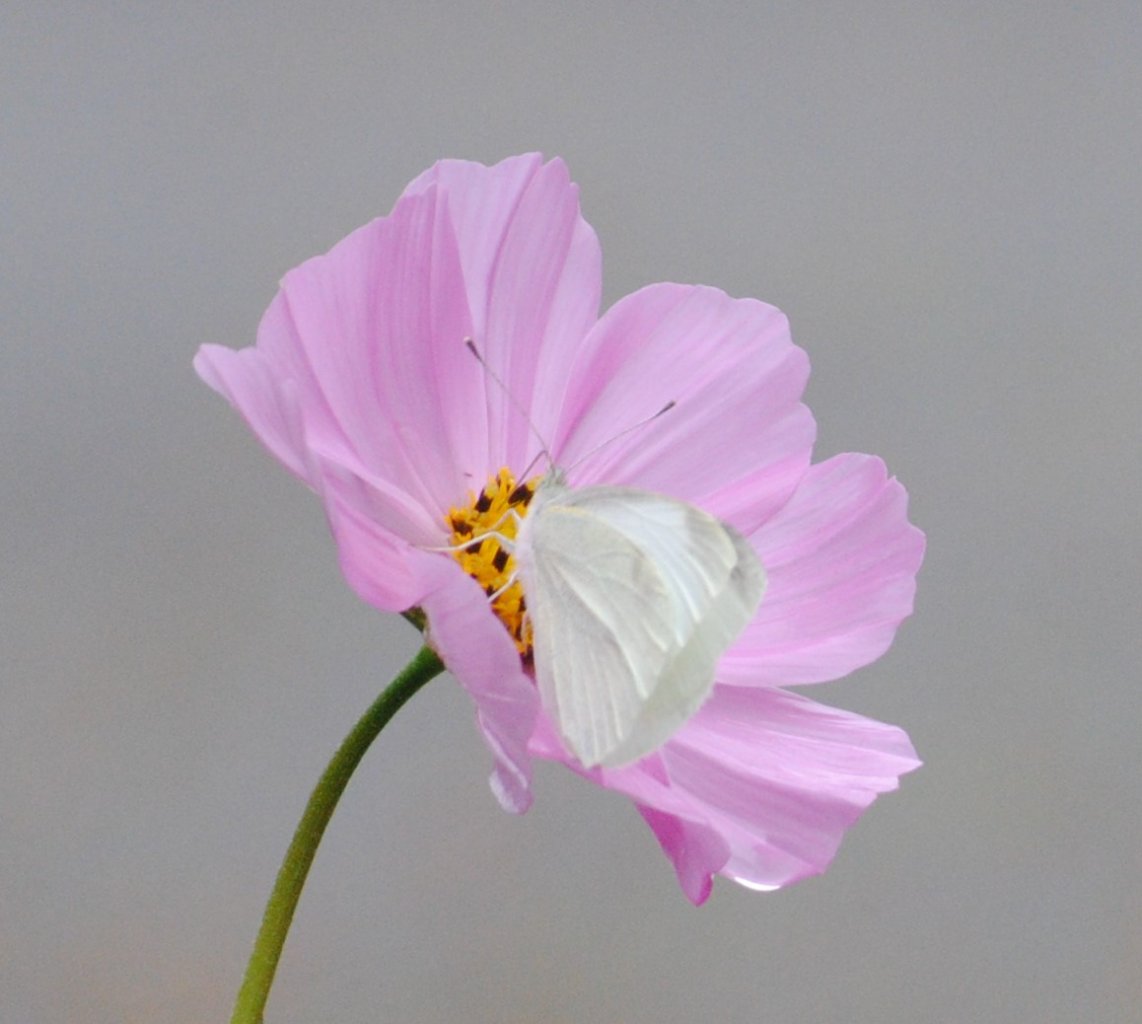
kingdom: Animalia
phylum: Arthropoda
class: Insecta
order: Lepidoptera
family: Pieridae
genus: Pieris
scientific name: Pieris rapae
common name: Cabbage White
